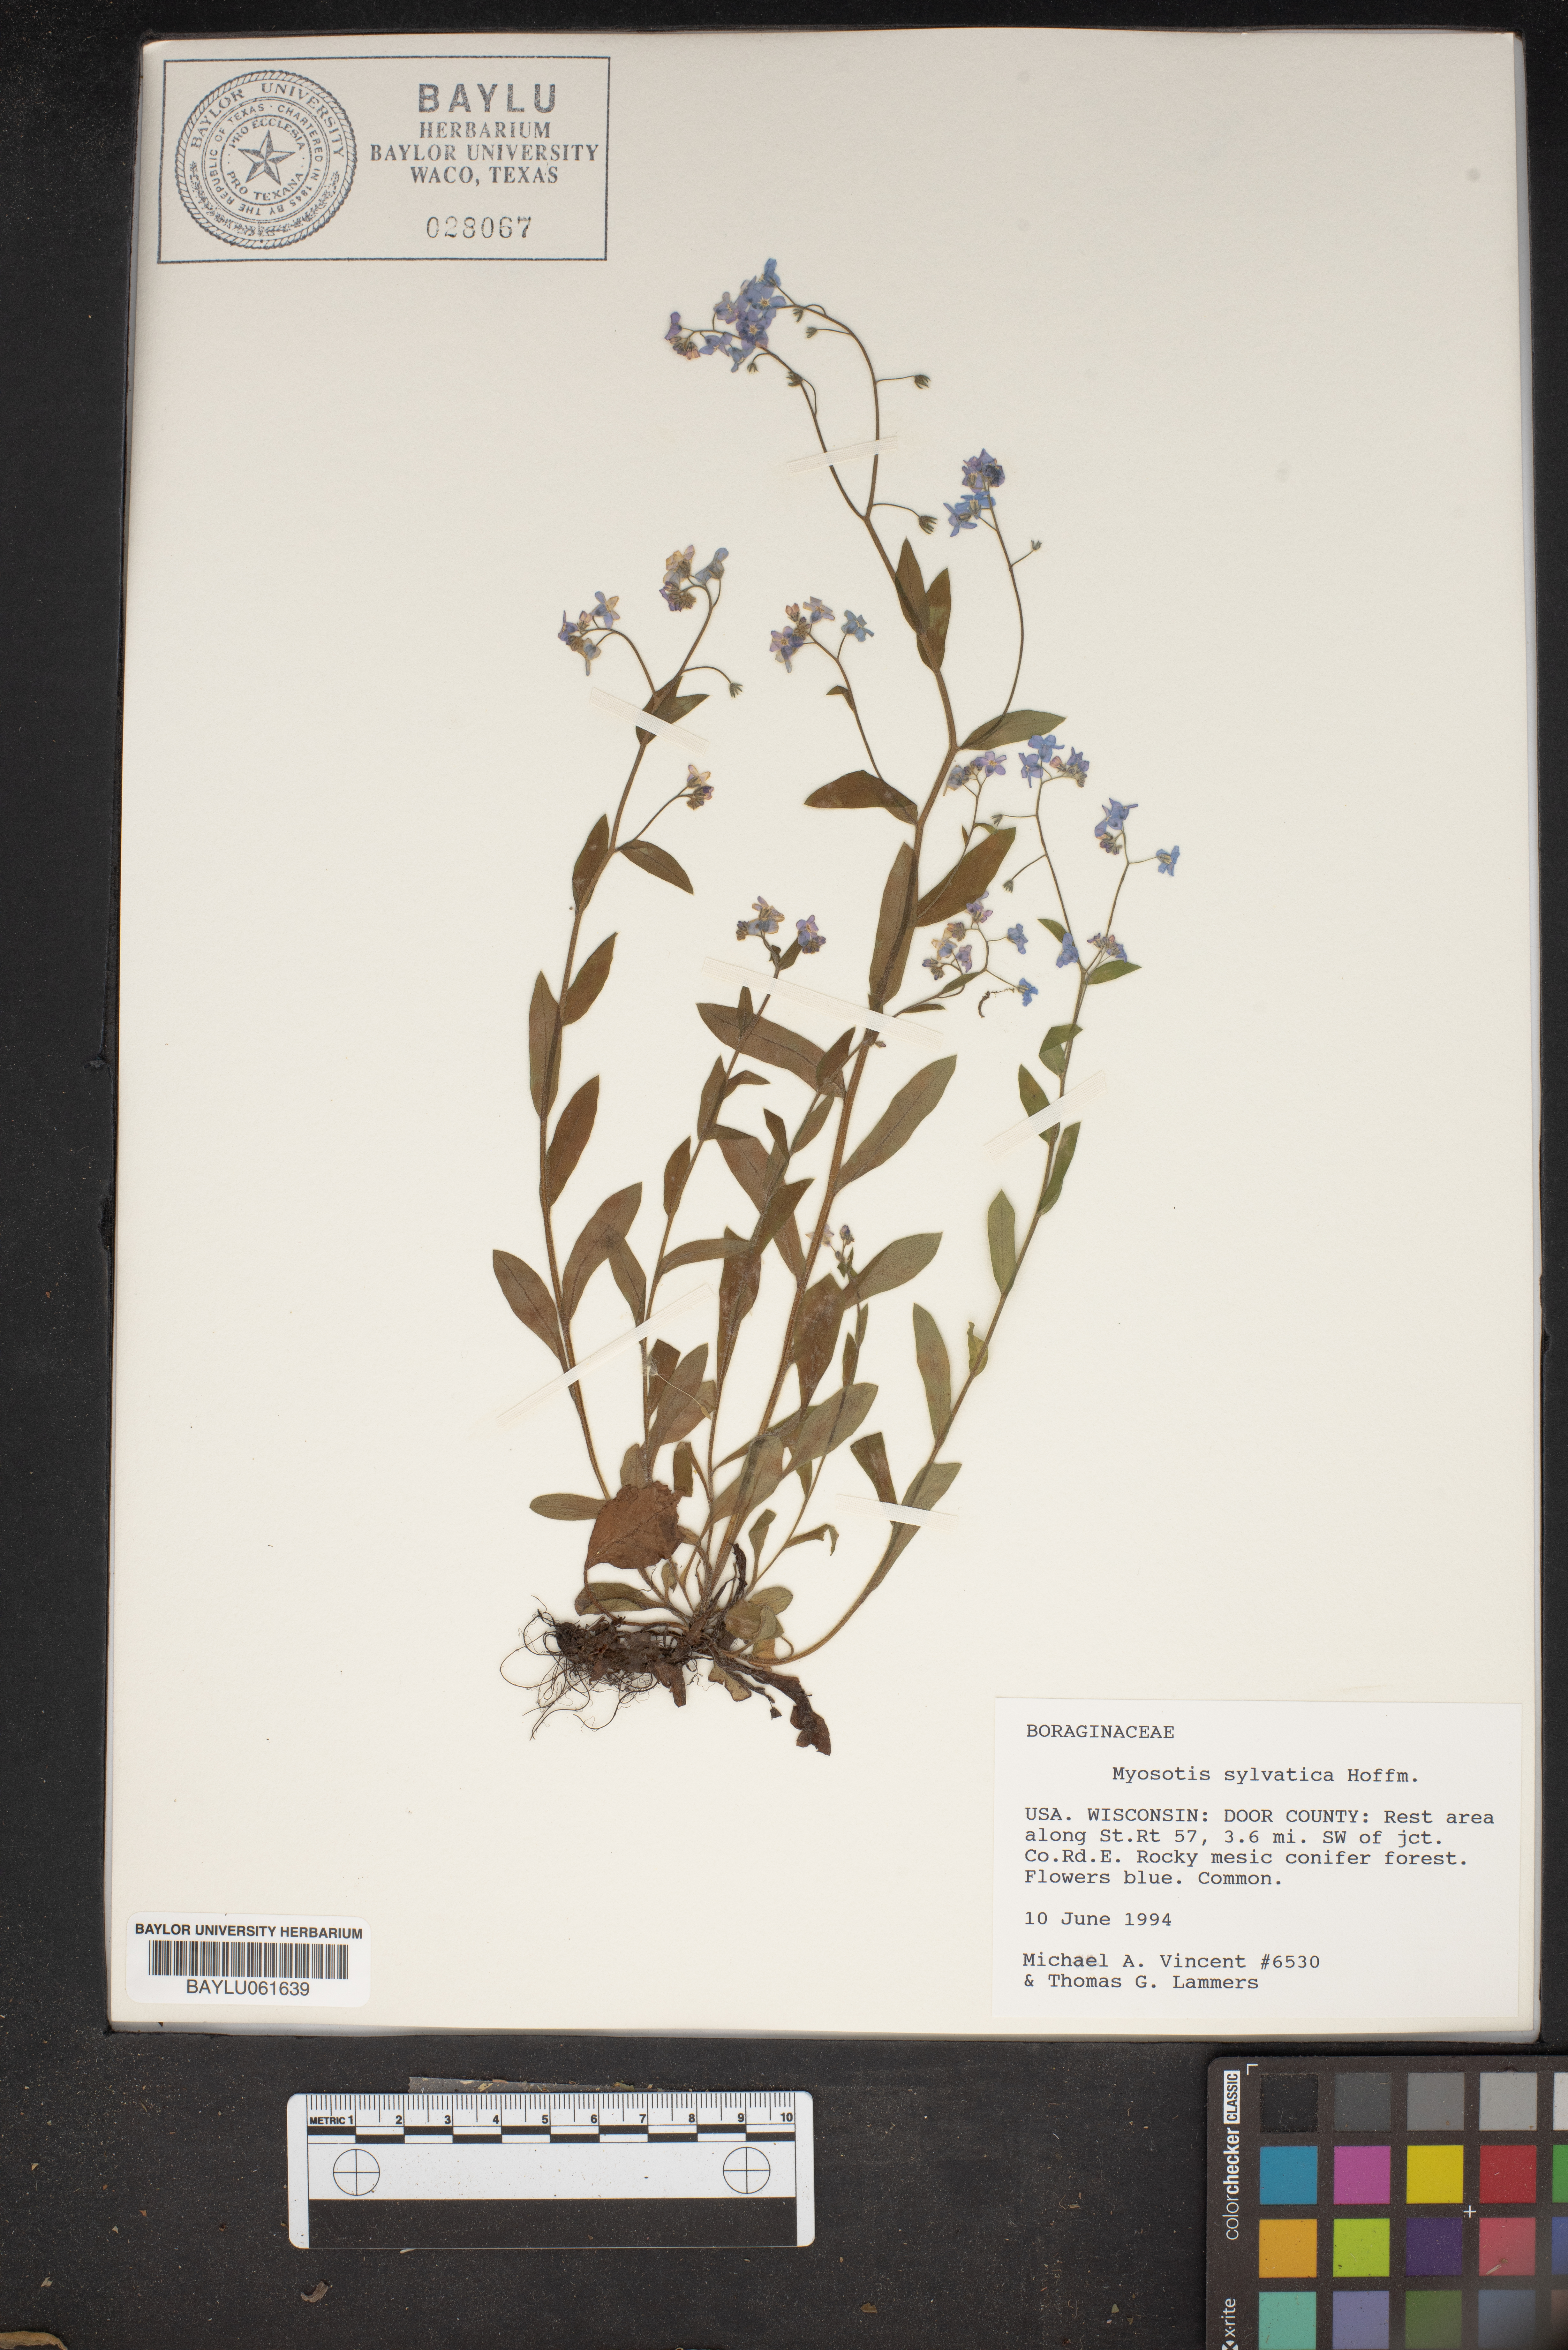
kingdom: Plantae
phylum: Tracheophyta
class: Magnoliopsida
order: Boraginales
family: Boraginaceae
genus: Myosotis
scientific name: Myosotis sylvatica
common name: Wood forget-me-not
